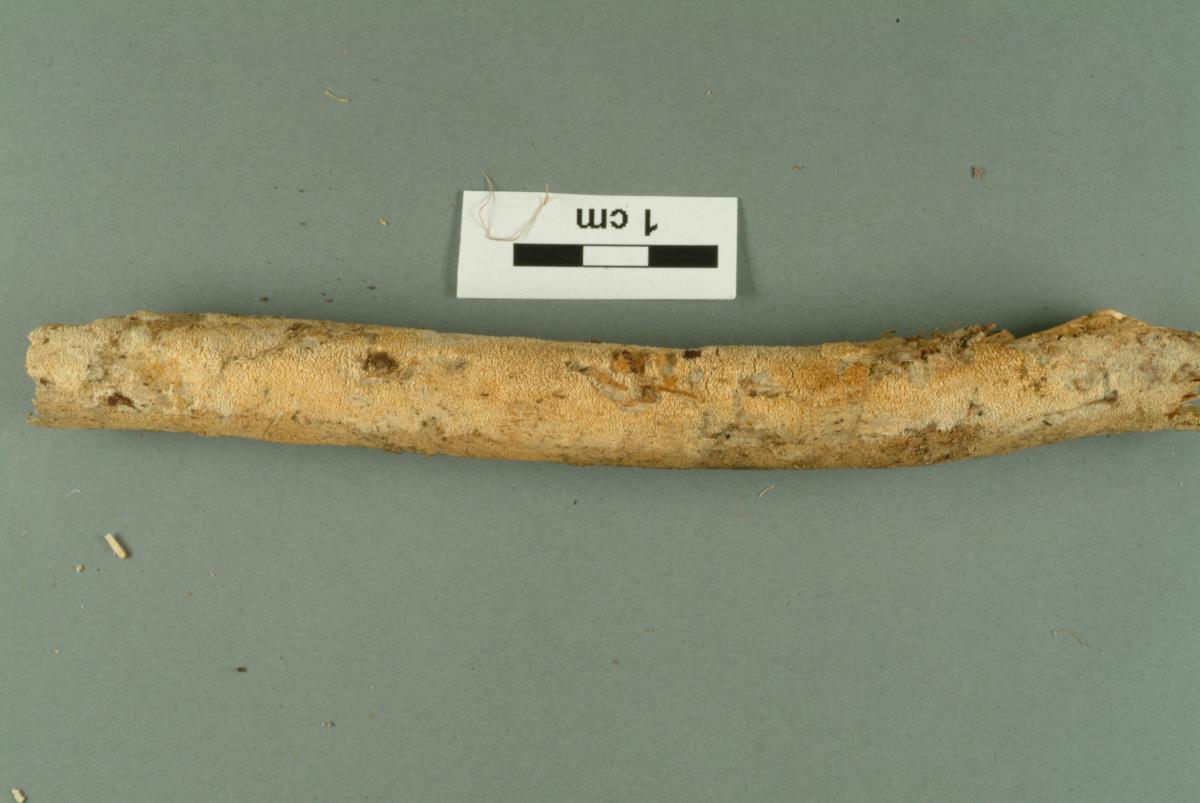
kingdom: Fungi
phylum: Basidiomycota
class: Agaricomycetes
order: Hymenochaetales
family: Hyphodontiaceae
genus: Hyphodontia
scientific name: Hyphodontia arguta
